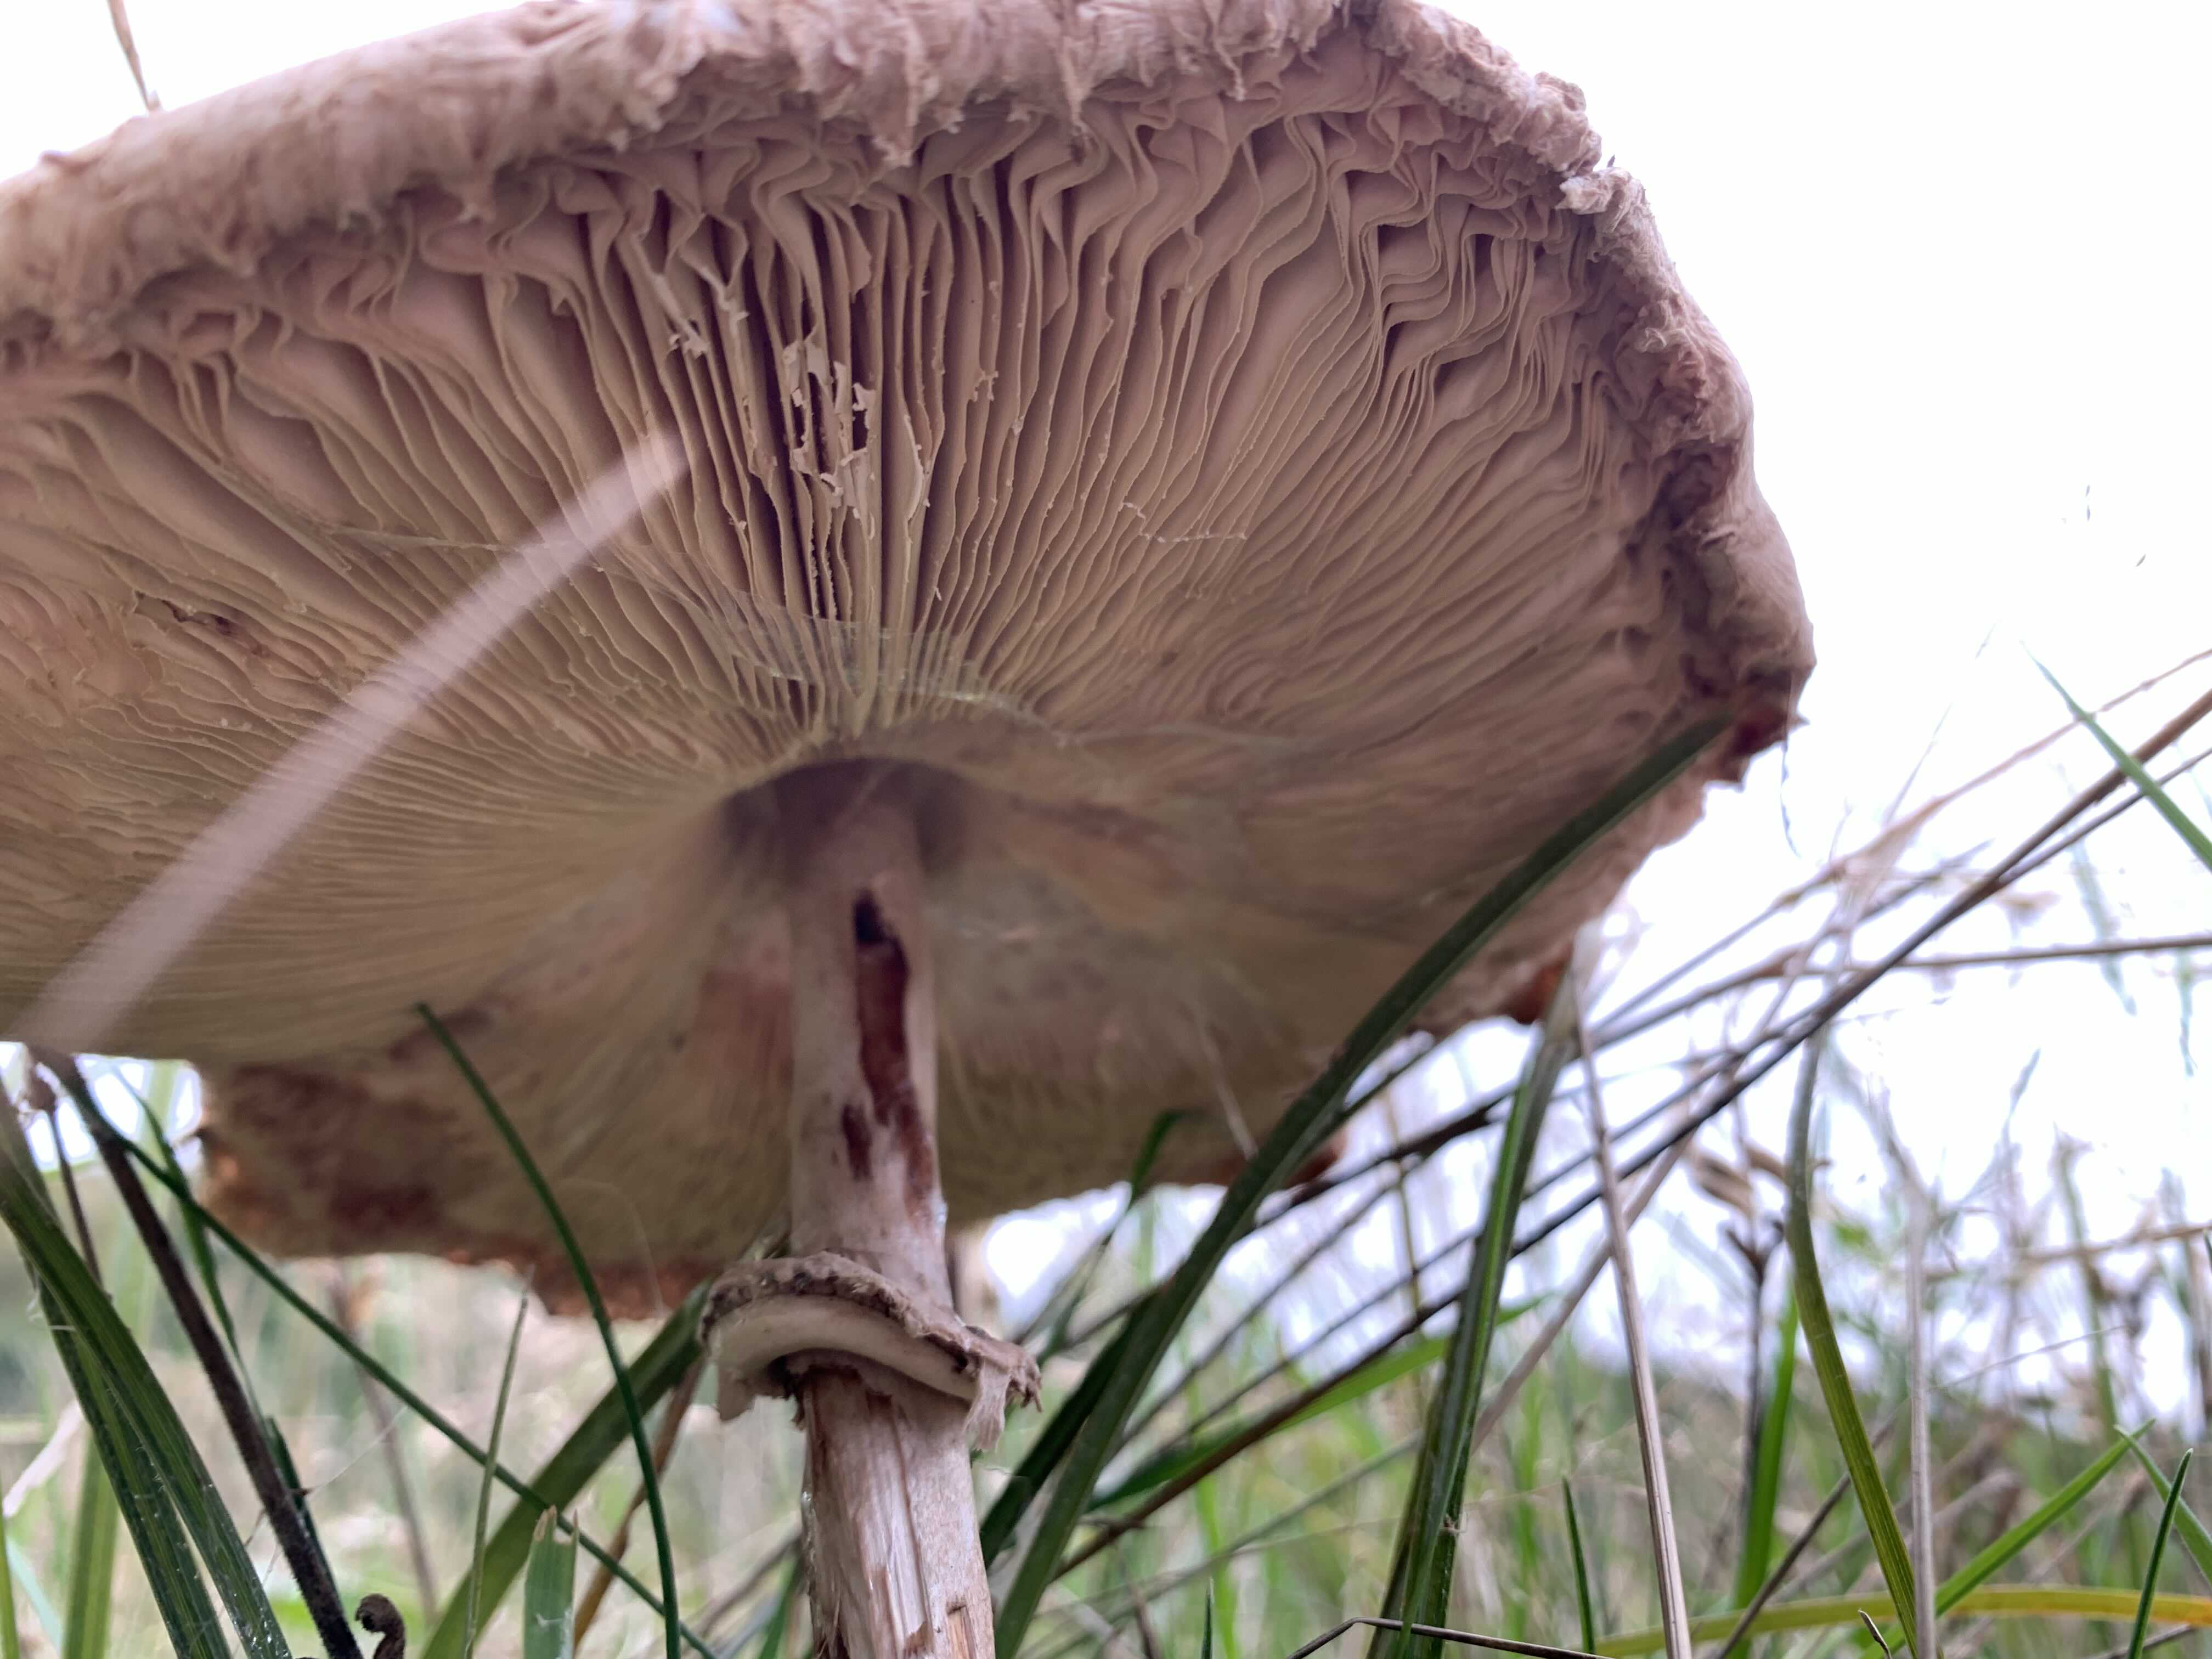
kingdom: Fungi
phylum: Basidiomycota
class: Agaricomycetes
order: Agaricales
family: Agaricaceae
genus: Macrolepiota
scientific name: Macrolepiota procera
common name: stor kæmpeparasolhat
